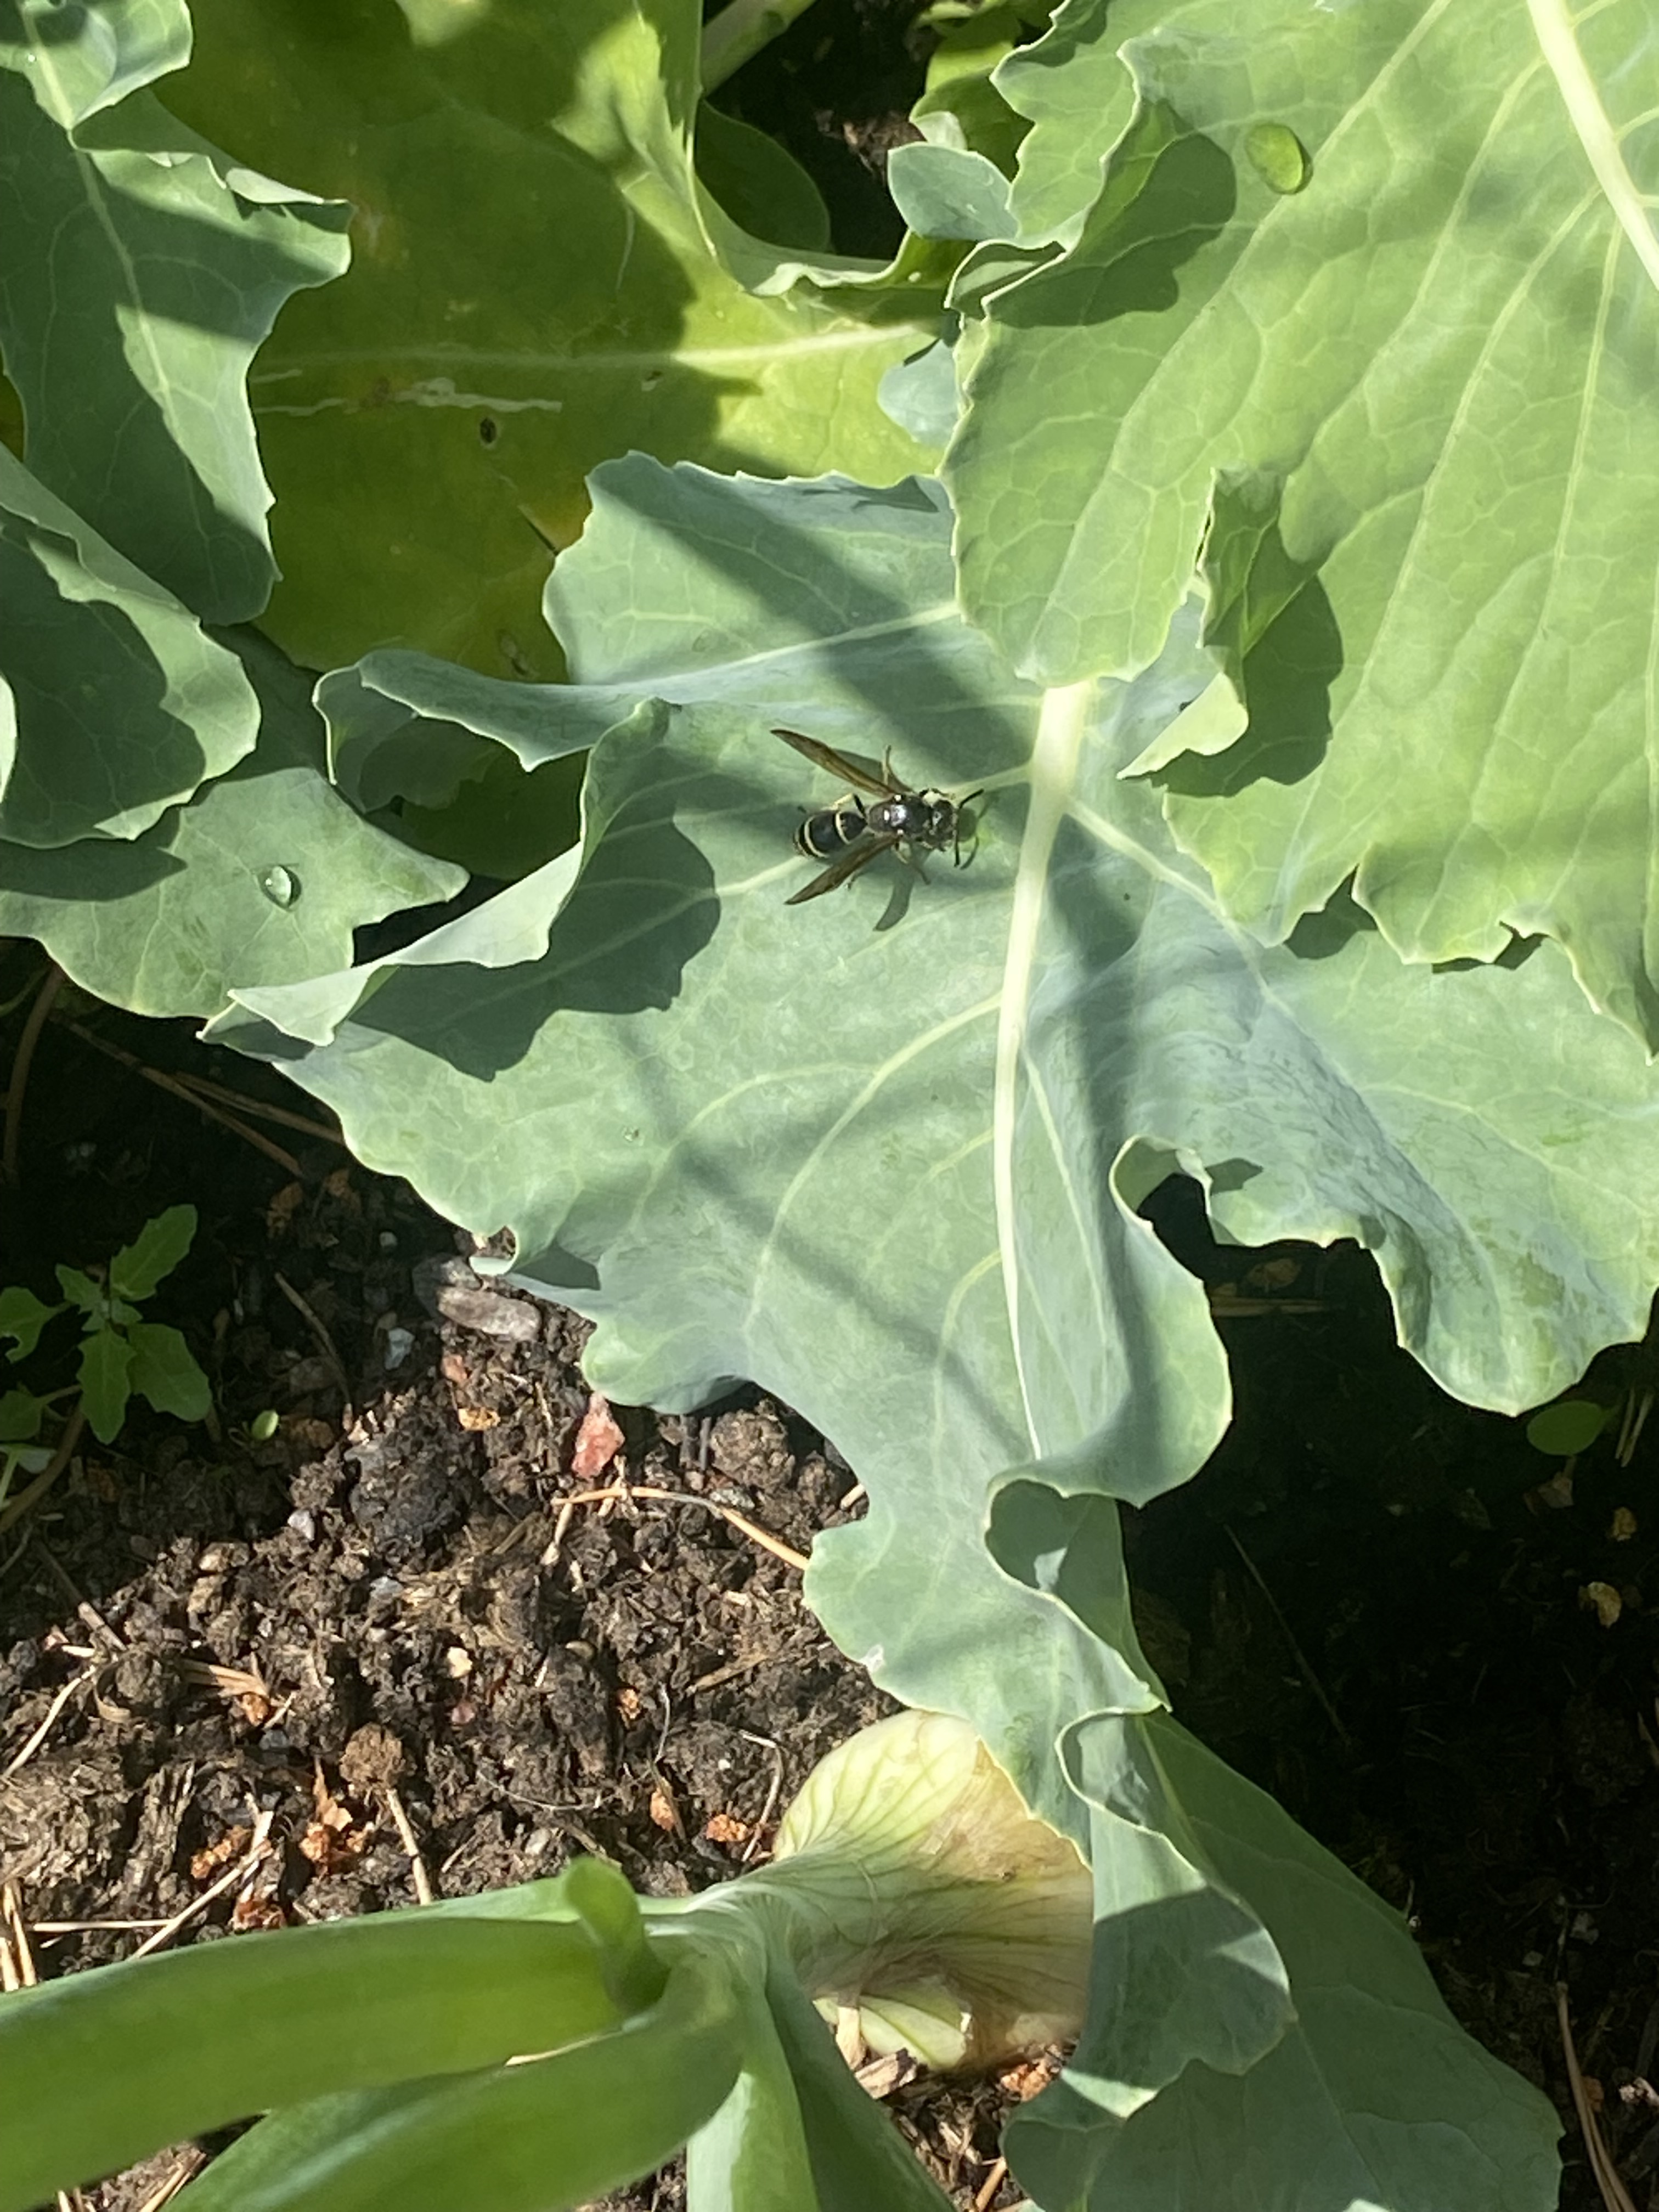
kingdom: Animalia
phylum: Arthropoda
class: Insecta
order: Hymenoptera
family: Vespidae
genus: Odynerus
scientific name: Odynerus spinipes
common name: Spiny mason wasp
